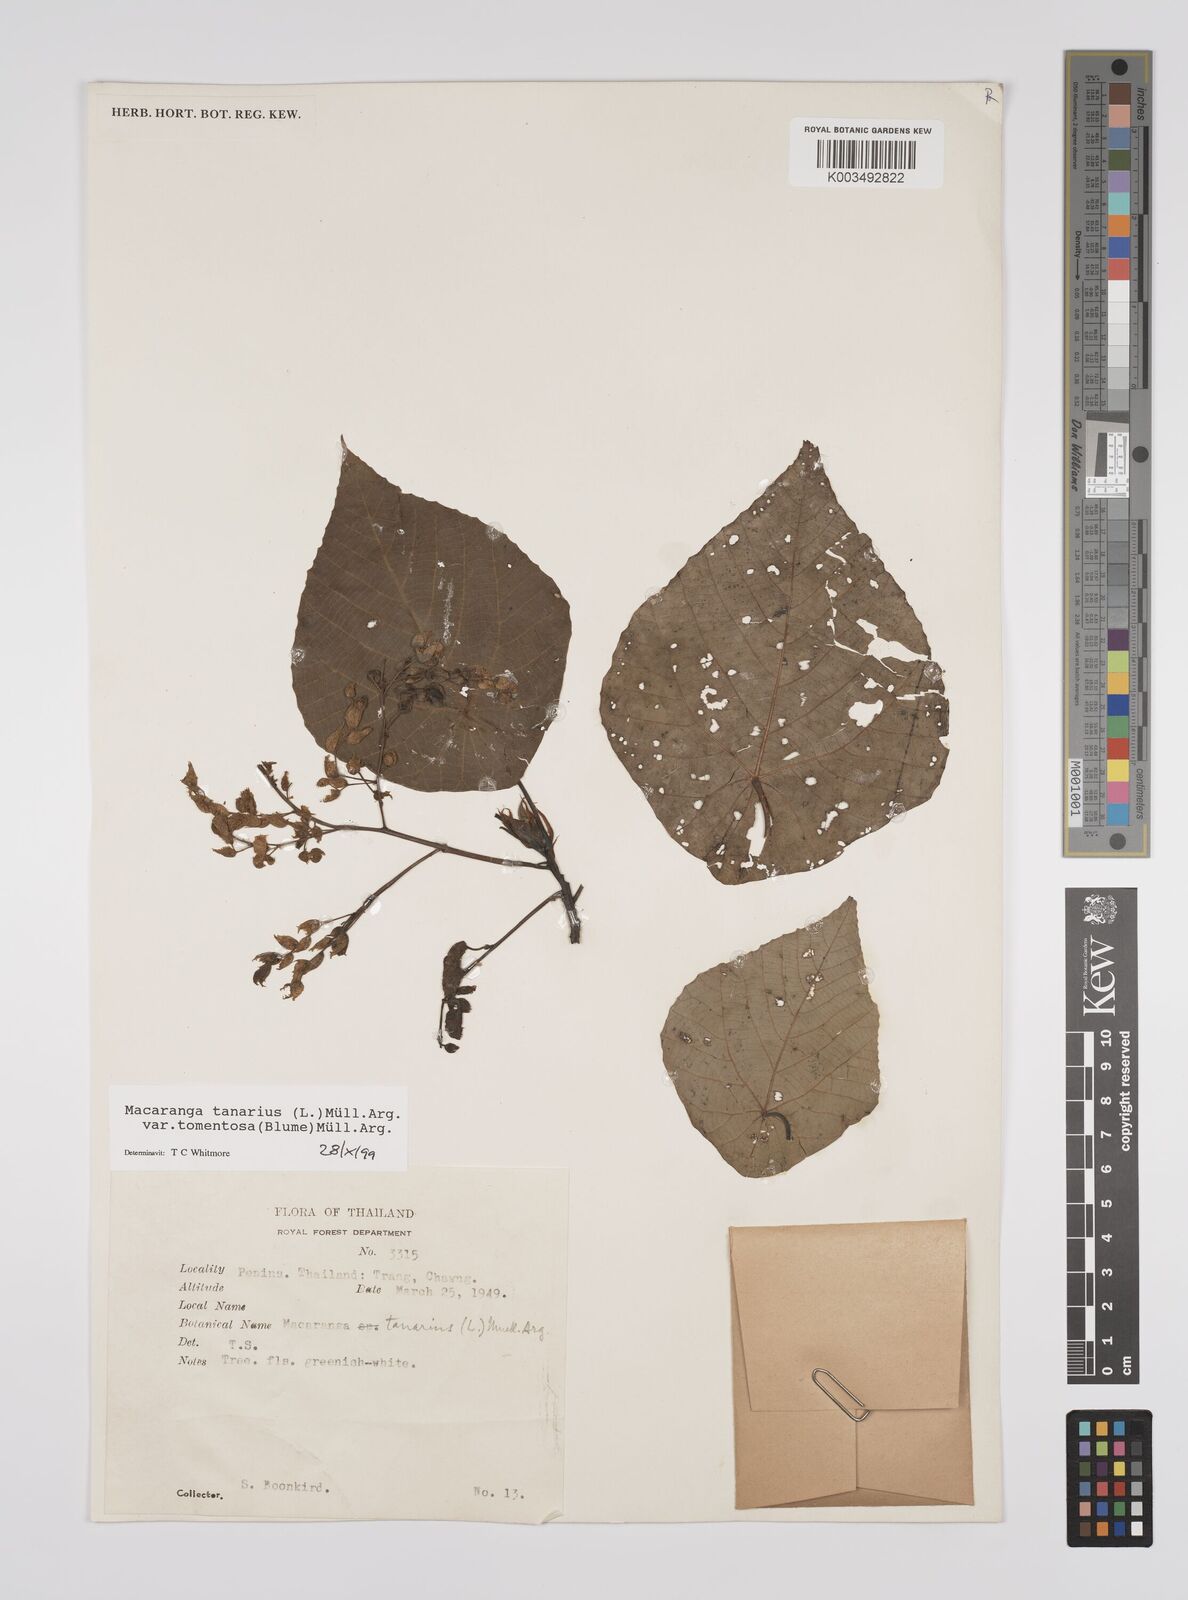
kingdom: Plantae
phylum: Tracheophyta
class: Magnoliopsida
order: Malpighiales
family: Euphorbiaceae
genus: Macaranga
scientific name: Macaranga tanarius
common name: Parasol leaf tree
